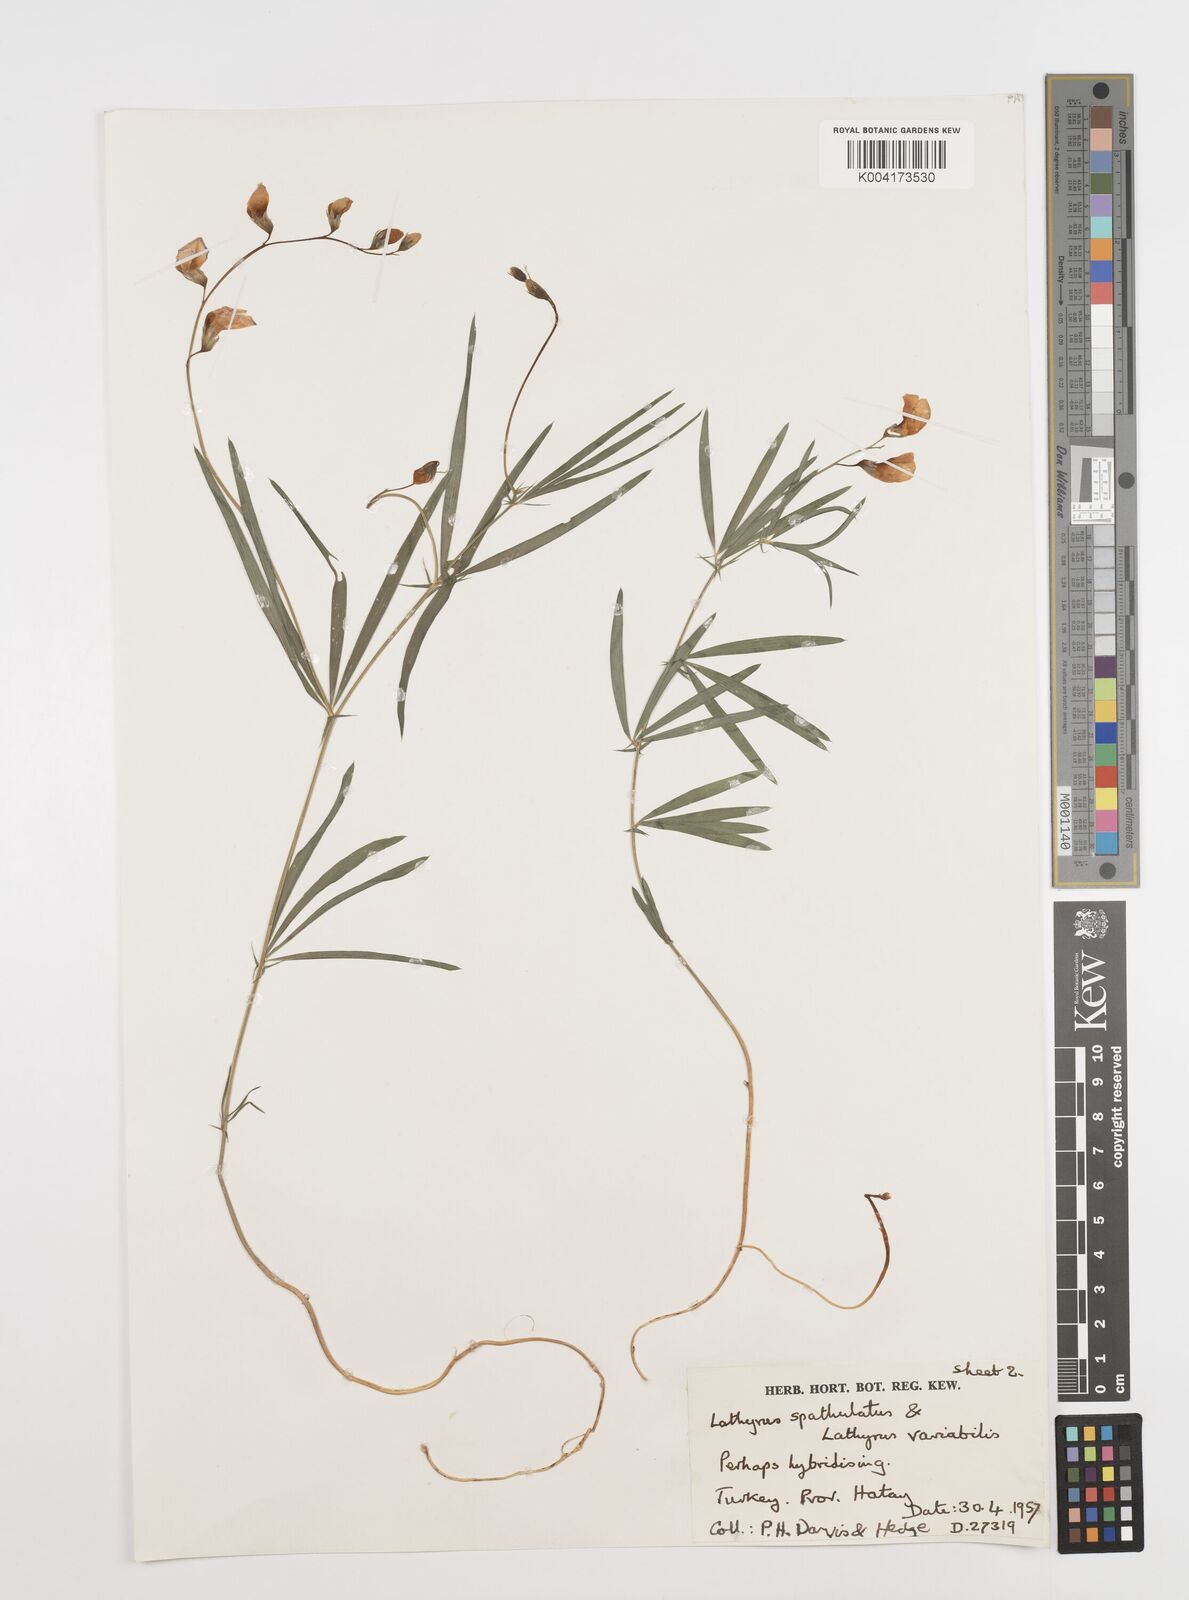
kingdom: Plantae
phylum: Tracheophyta
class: Magnoliopsida
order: Fabales
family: Fabaceae
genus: Lathyrus
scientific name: Lathyrus spathulatus
